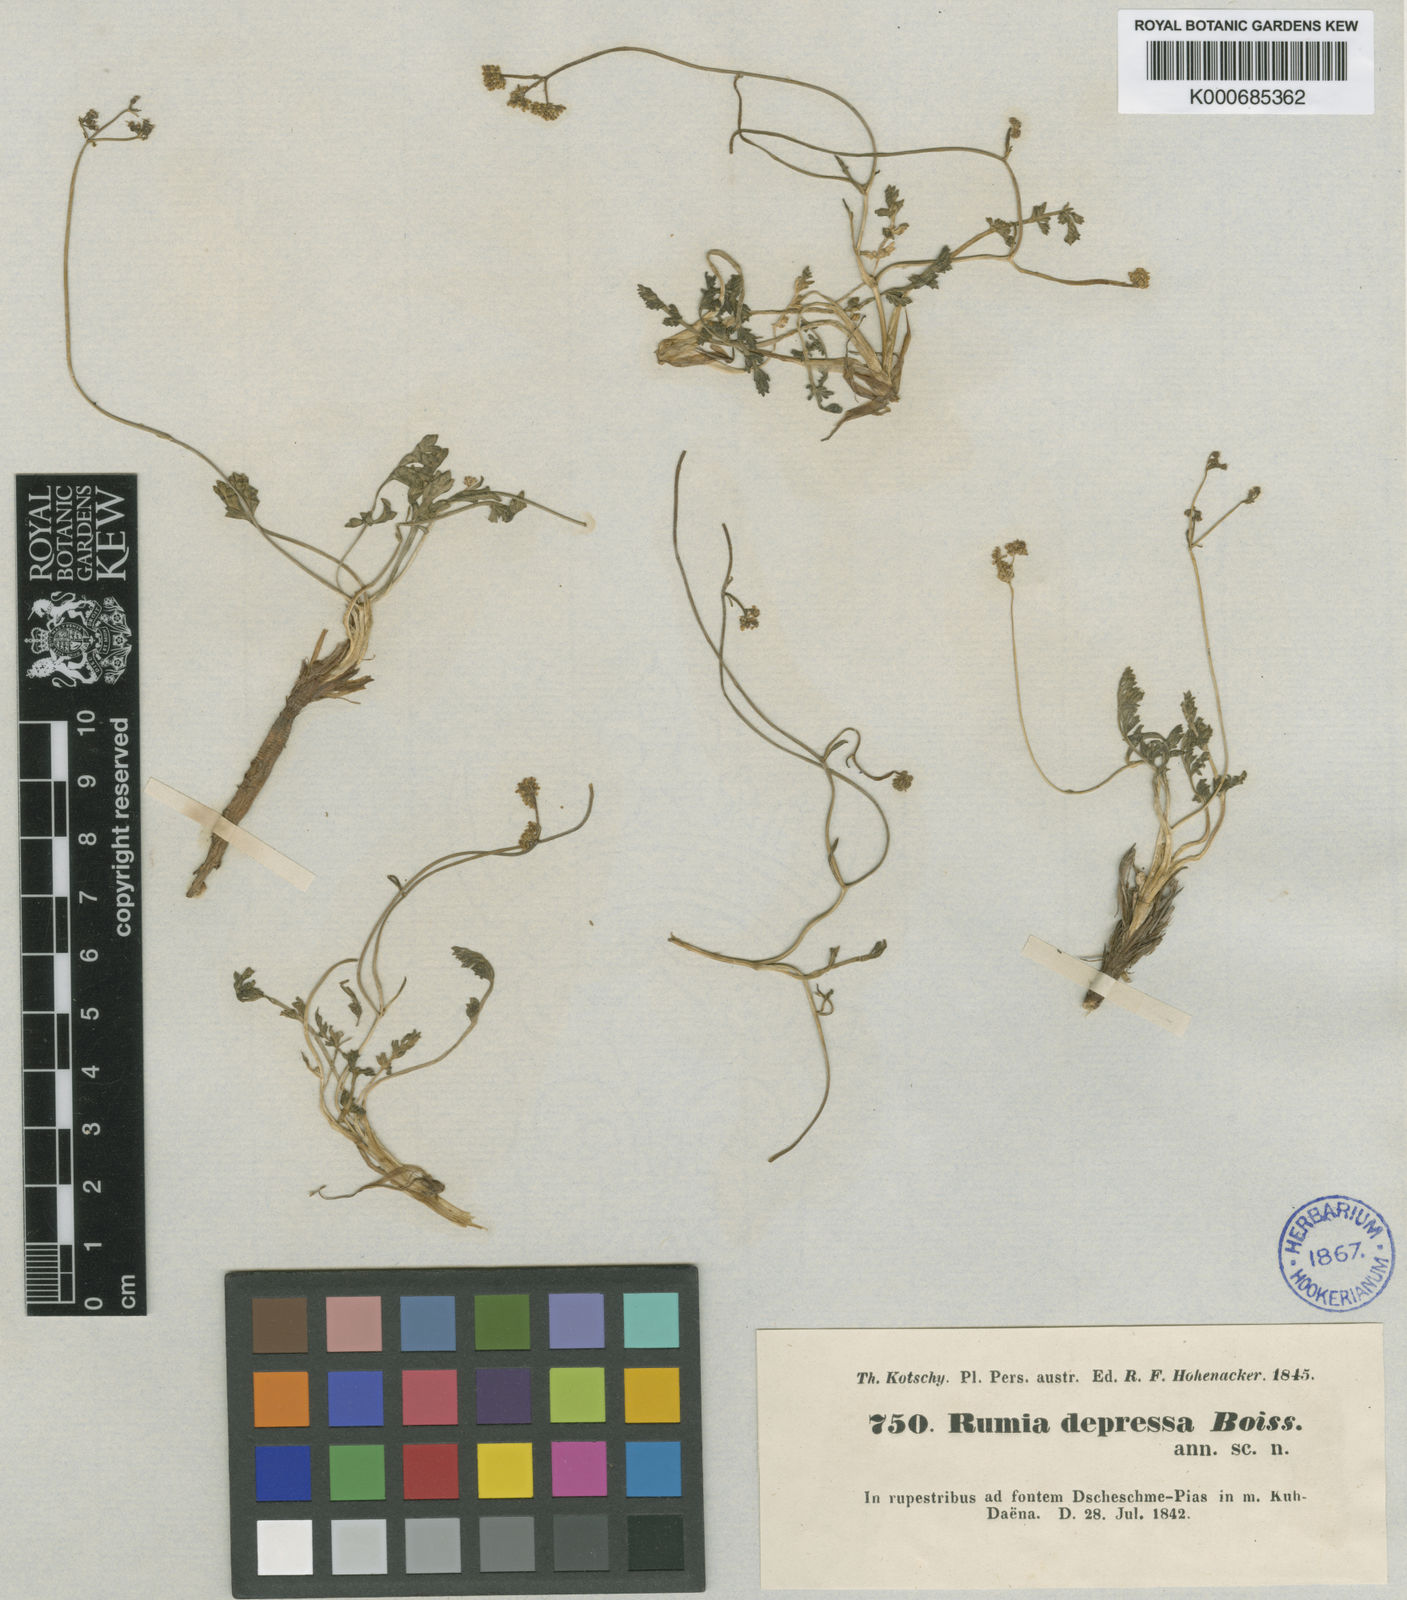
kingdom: Plantae
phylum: Tracheophyta
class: Magnoliopsida
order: Apiales
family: Apiaceae
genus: Pseudotrachydium
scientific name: Pseudotrachydium depressum
